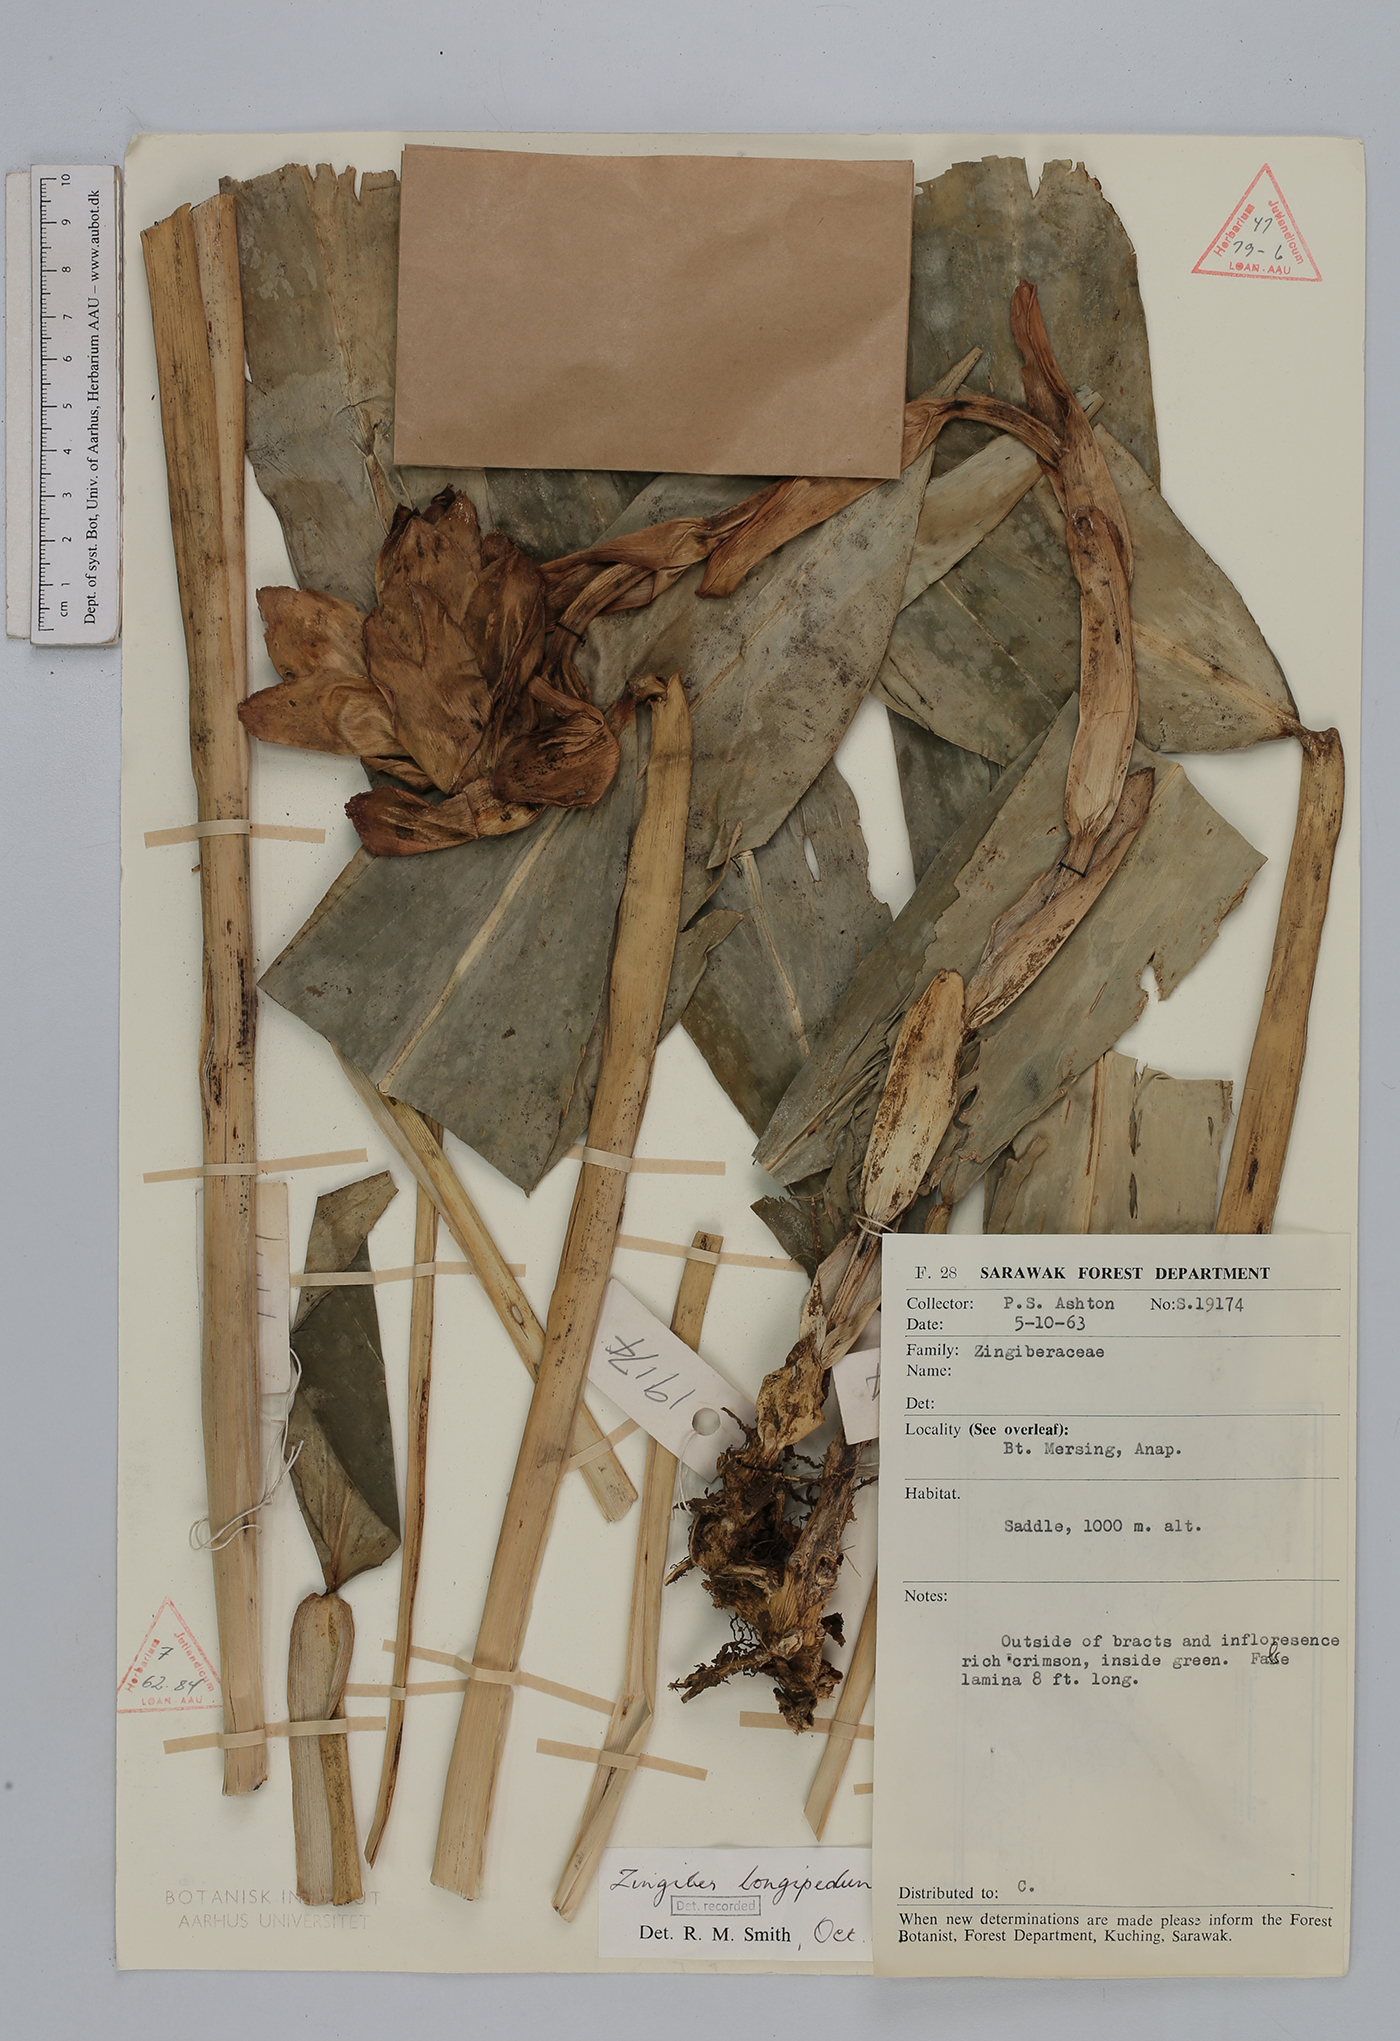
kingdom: Plantae
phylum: Tracheophyta
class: Liliopsida
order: Zingiberales
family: Zingiberaceae
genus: Zingiber
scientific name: Zingiber longipedunculatum
